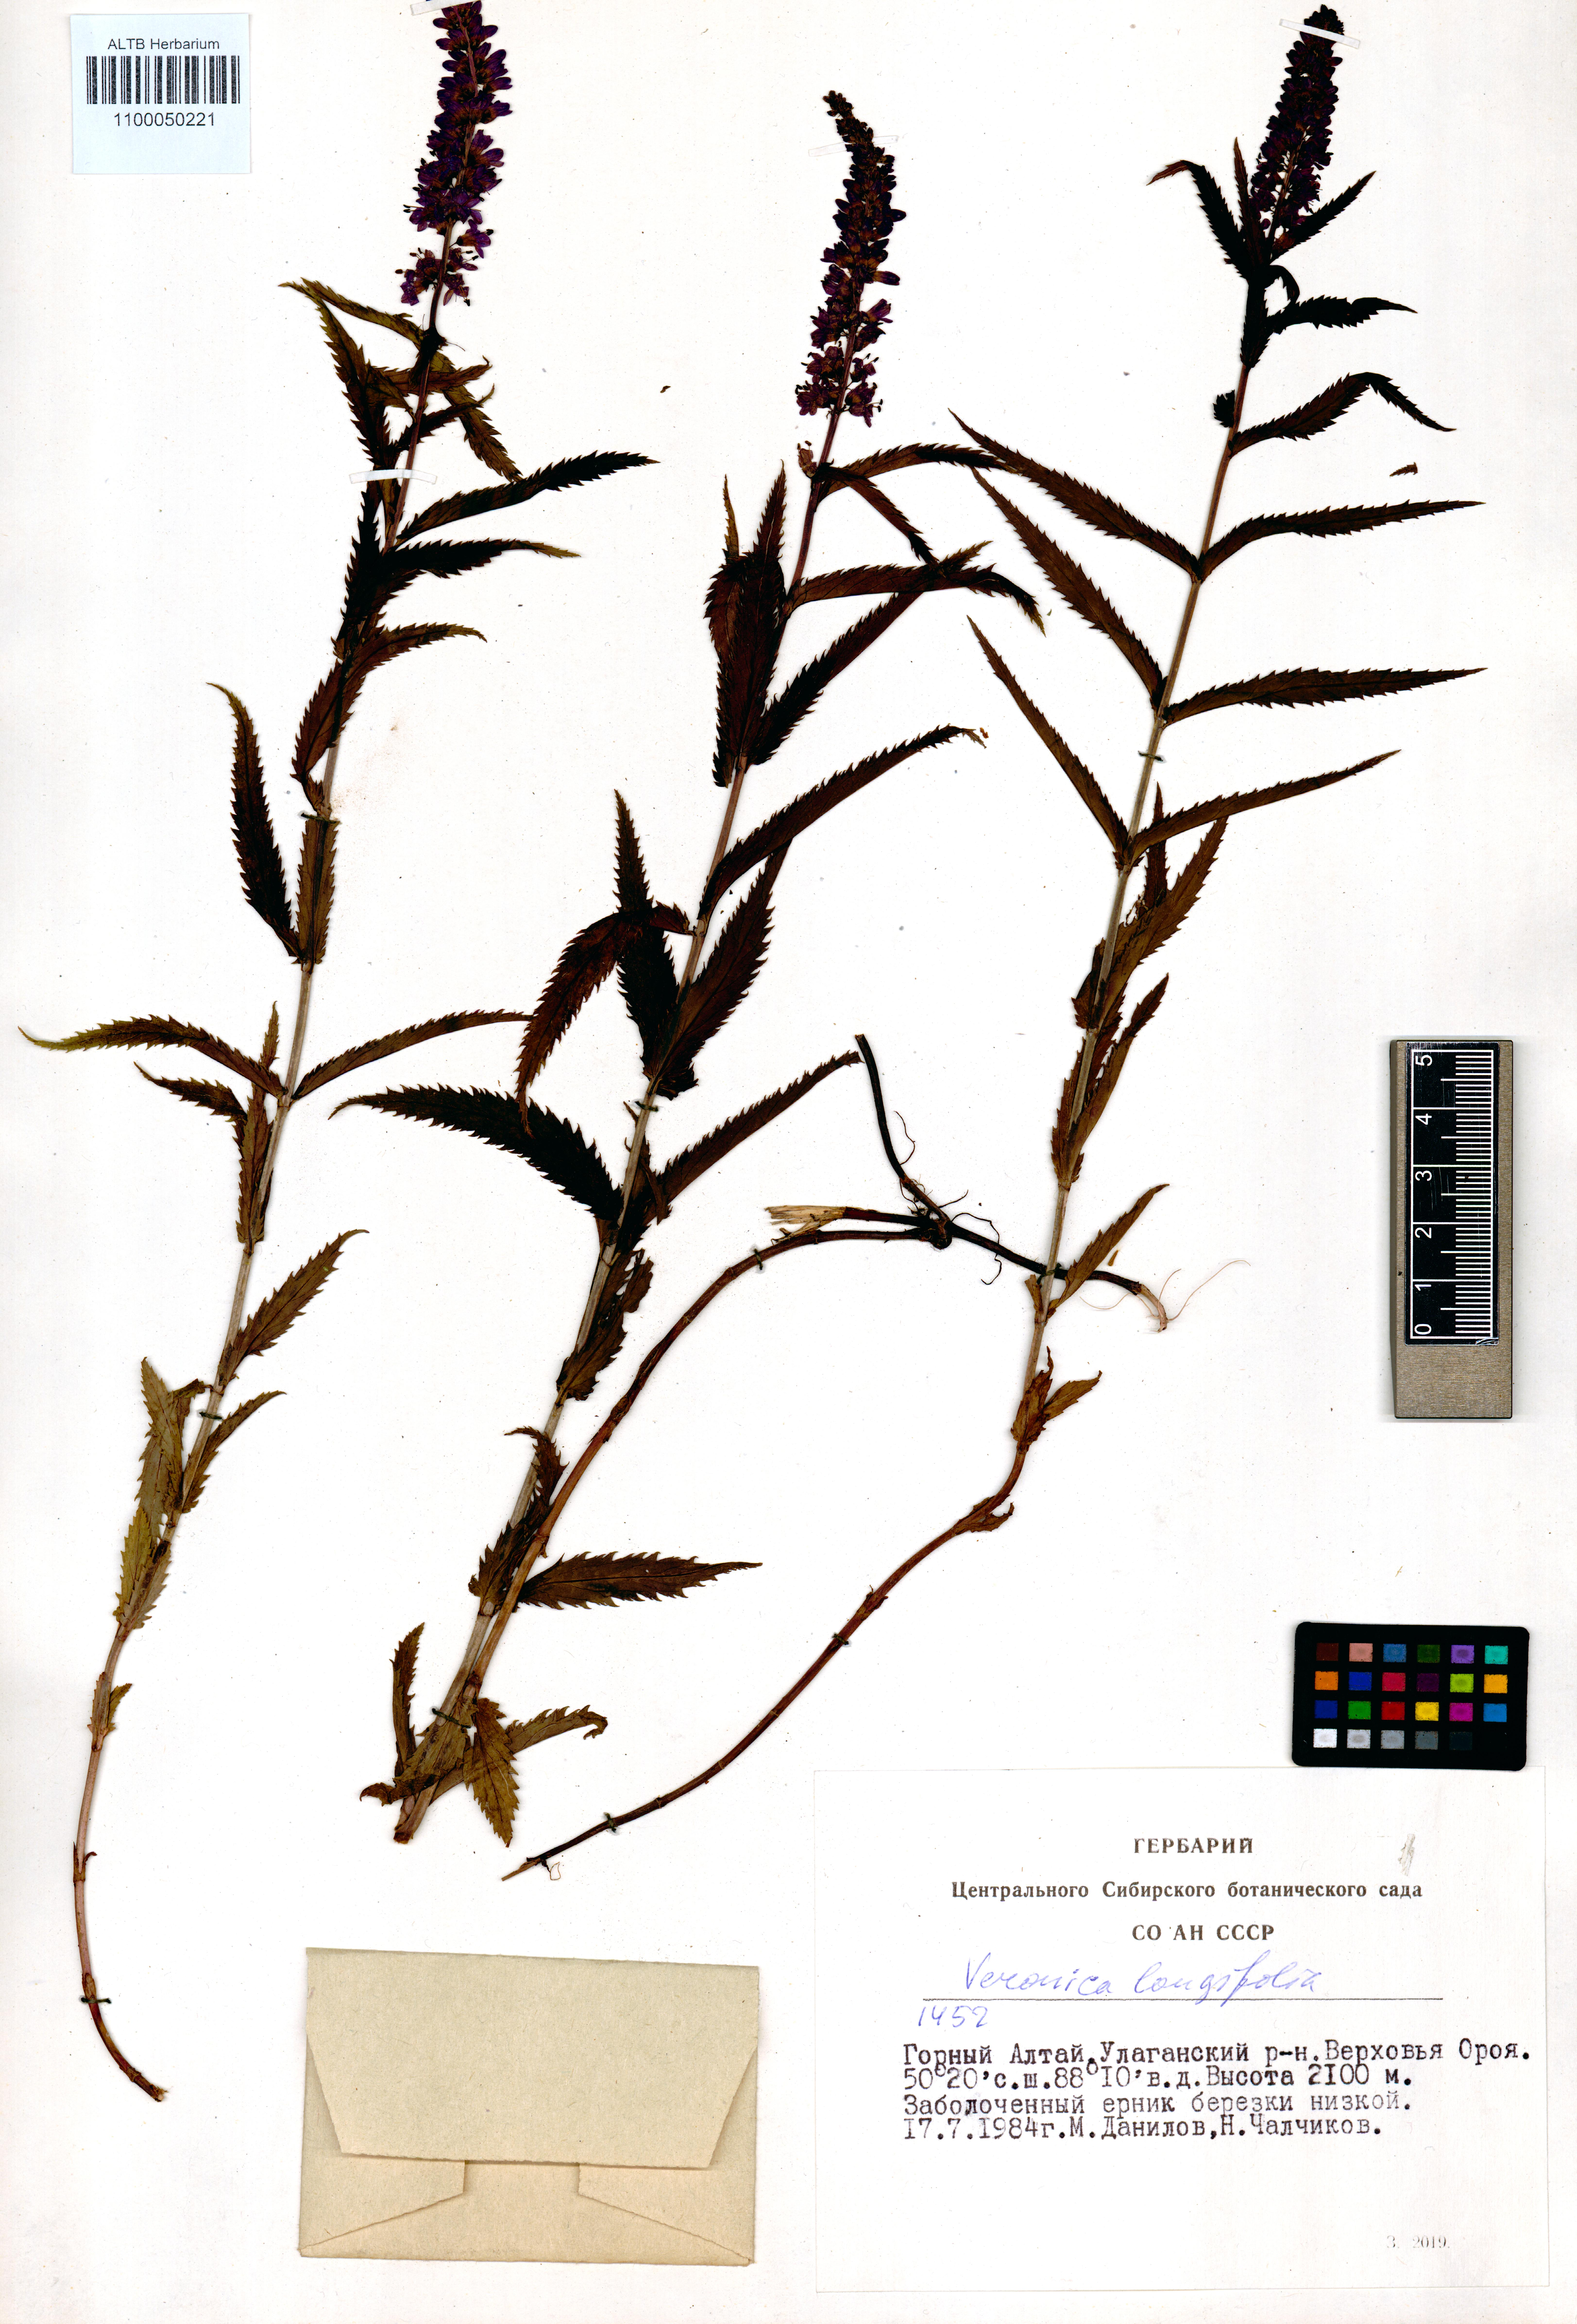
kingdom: Plantae
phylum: Tracheophyta
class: Magnoliopsida
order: Lamiales
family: Plantaginaceae
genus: Veronica
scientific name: Veronica longifolia
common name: Garden speedwell
